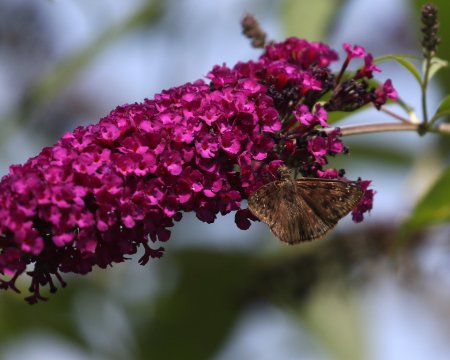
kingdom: Animalia
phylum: Arthropoda
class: Insecta
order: Lepidoptera
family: Hesperiidae
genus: Gesta
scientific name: Gesta
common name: Horace's Duskywing
